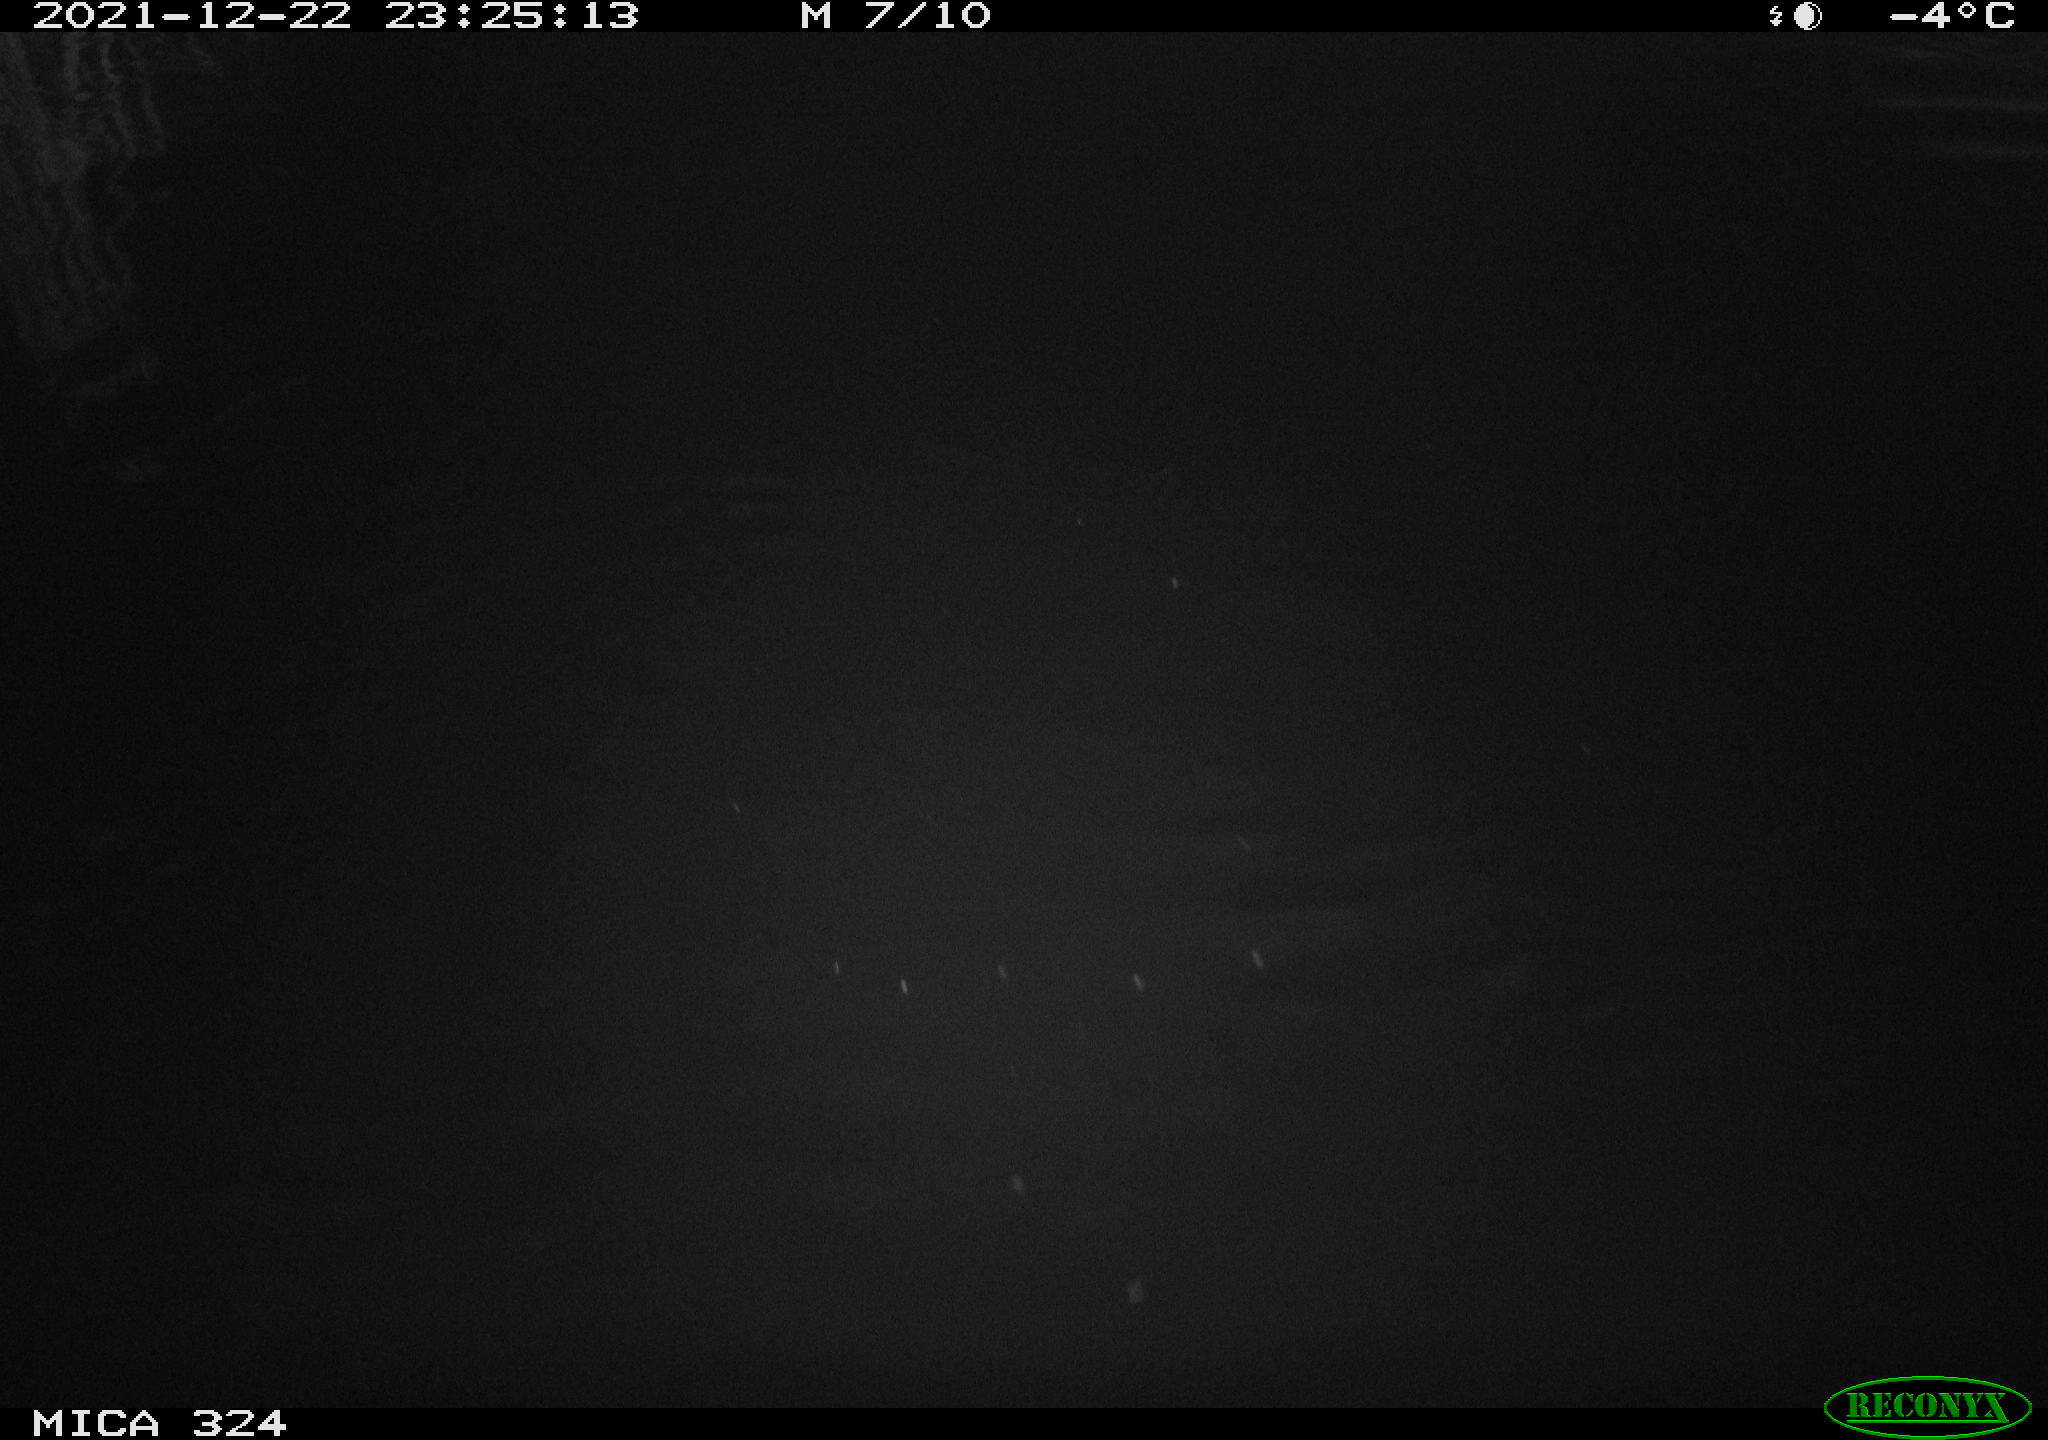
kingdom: Animalia
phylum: Chordata
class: Mammalia
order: Rodentia
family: Cricetidae
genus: Ondatra
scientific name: Ondatra zibethicus
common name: Muskrat
